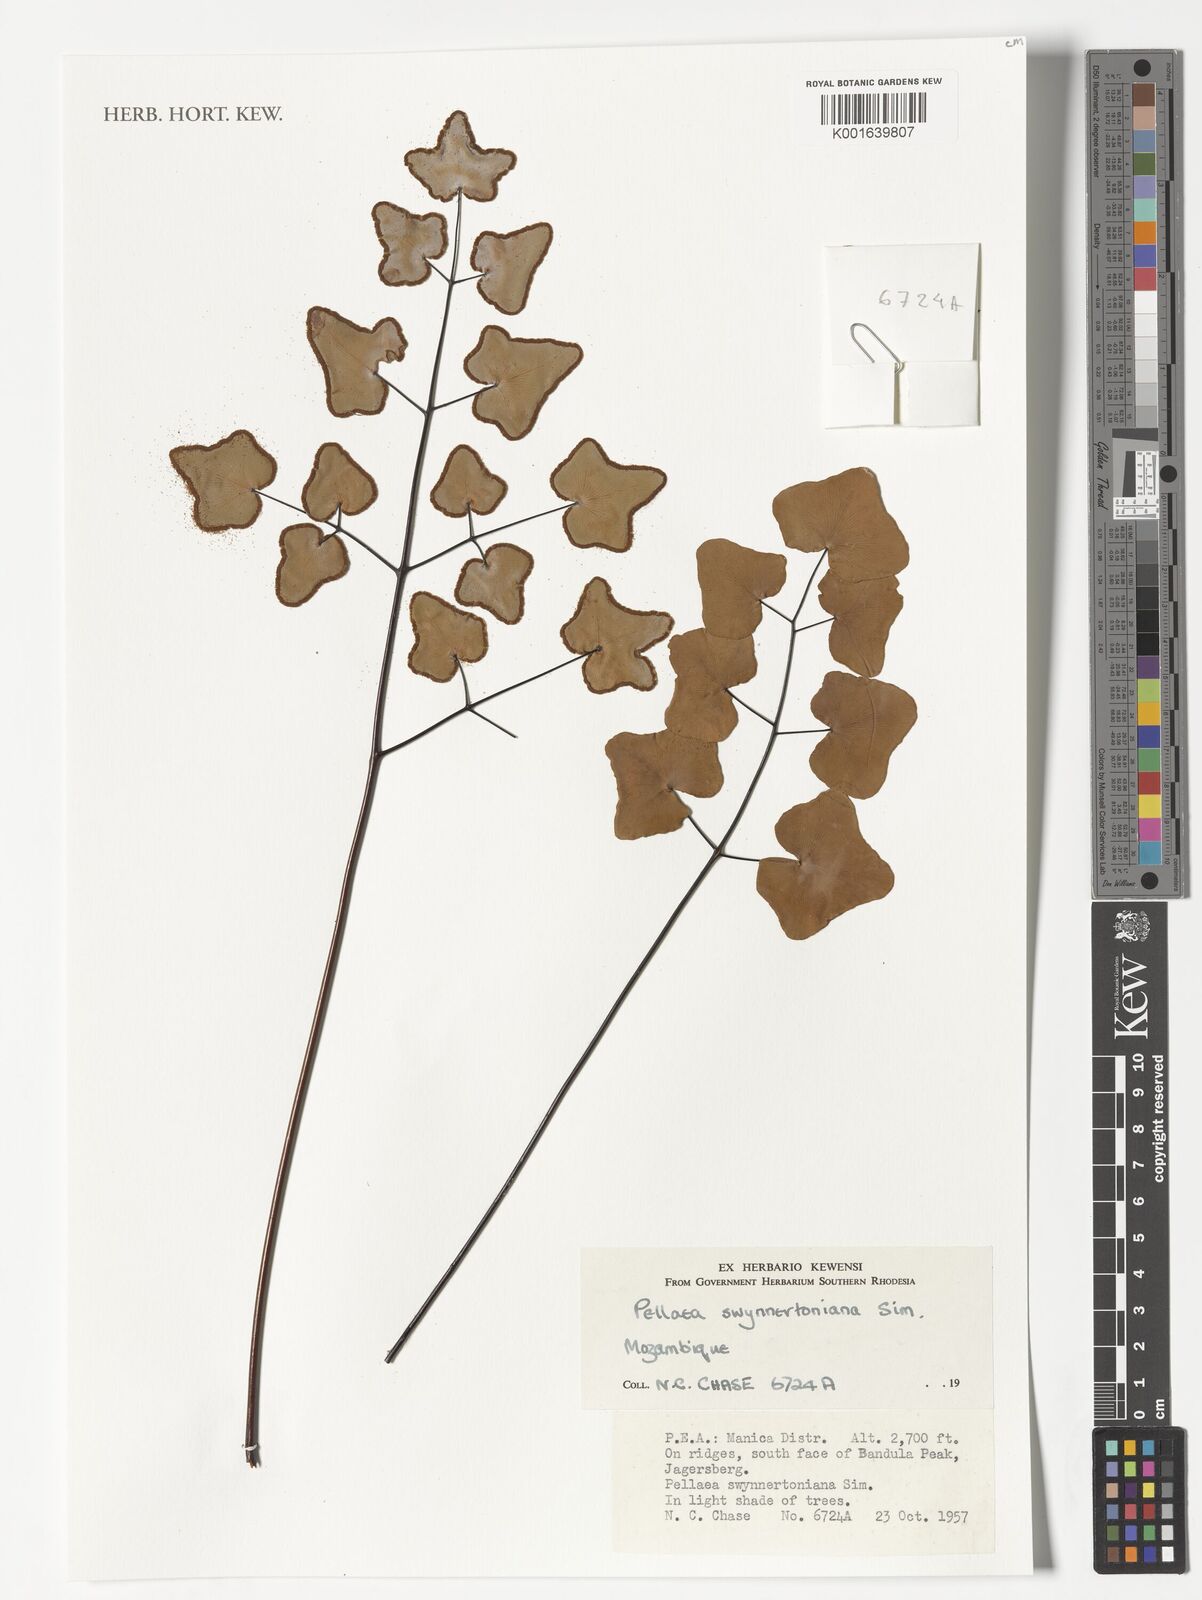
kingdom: Plantae
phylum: Tracheophyta
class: Polypodiopsida
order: Polypodiales
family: Pteridaceae
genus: Pellaea
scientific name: Pellaea calomelanos
